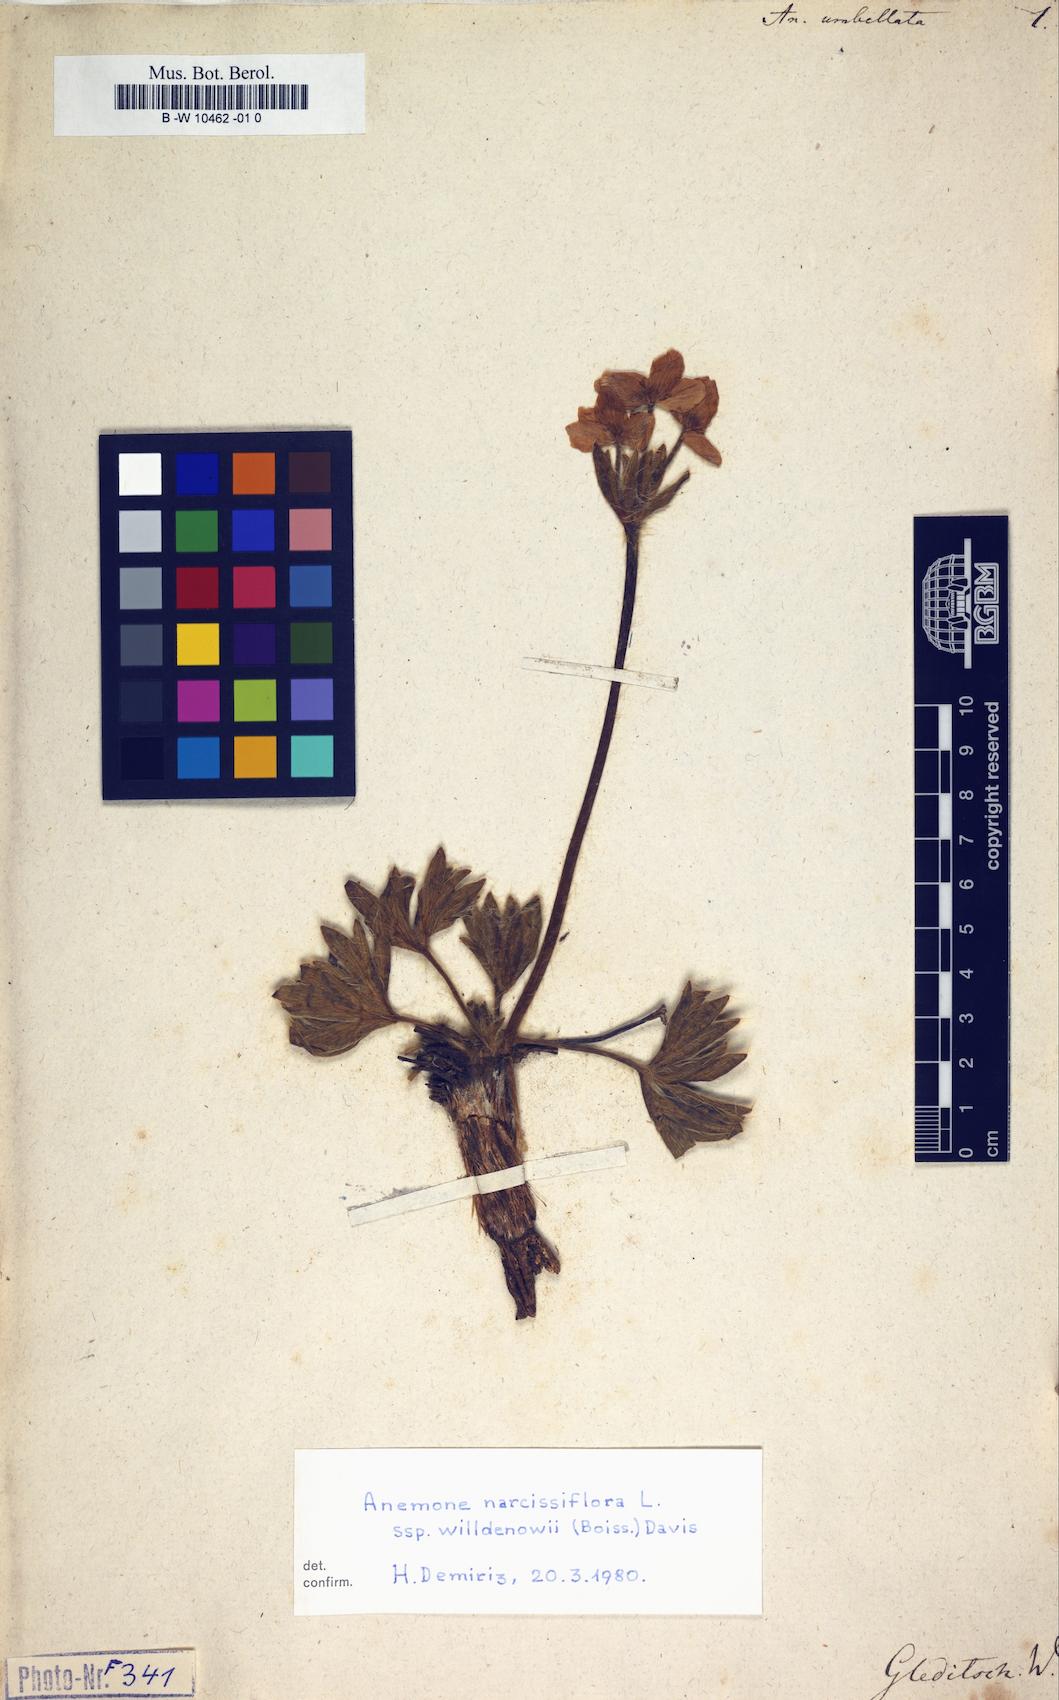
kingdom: Plantae
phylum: Tracheophyta
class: Magnoliopsida
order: Ranunculales
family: Ranunculaceae
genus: Anemonastrum
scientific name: Anemonastrum narcissiflorum
